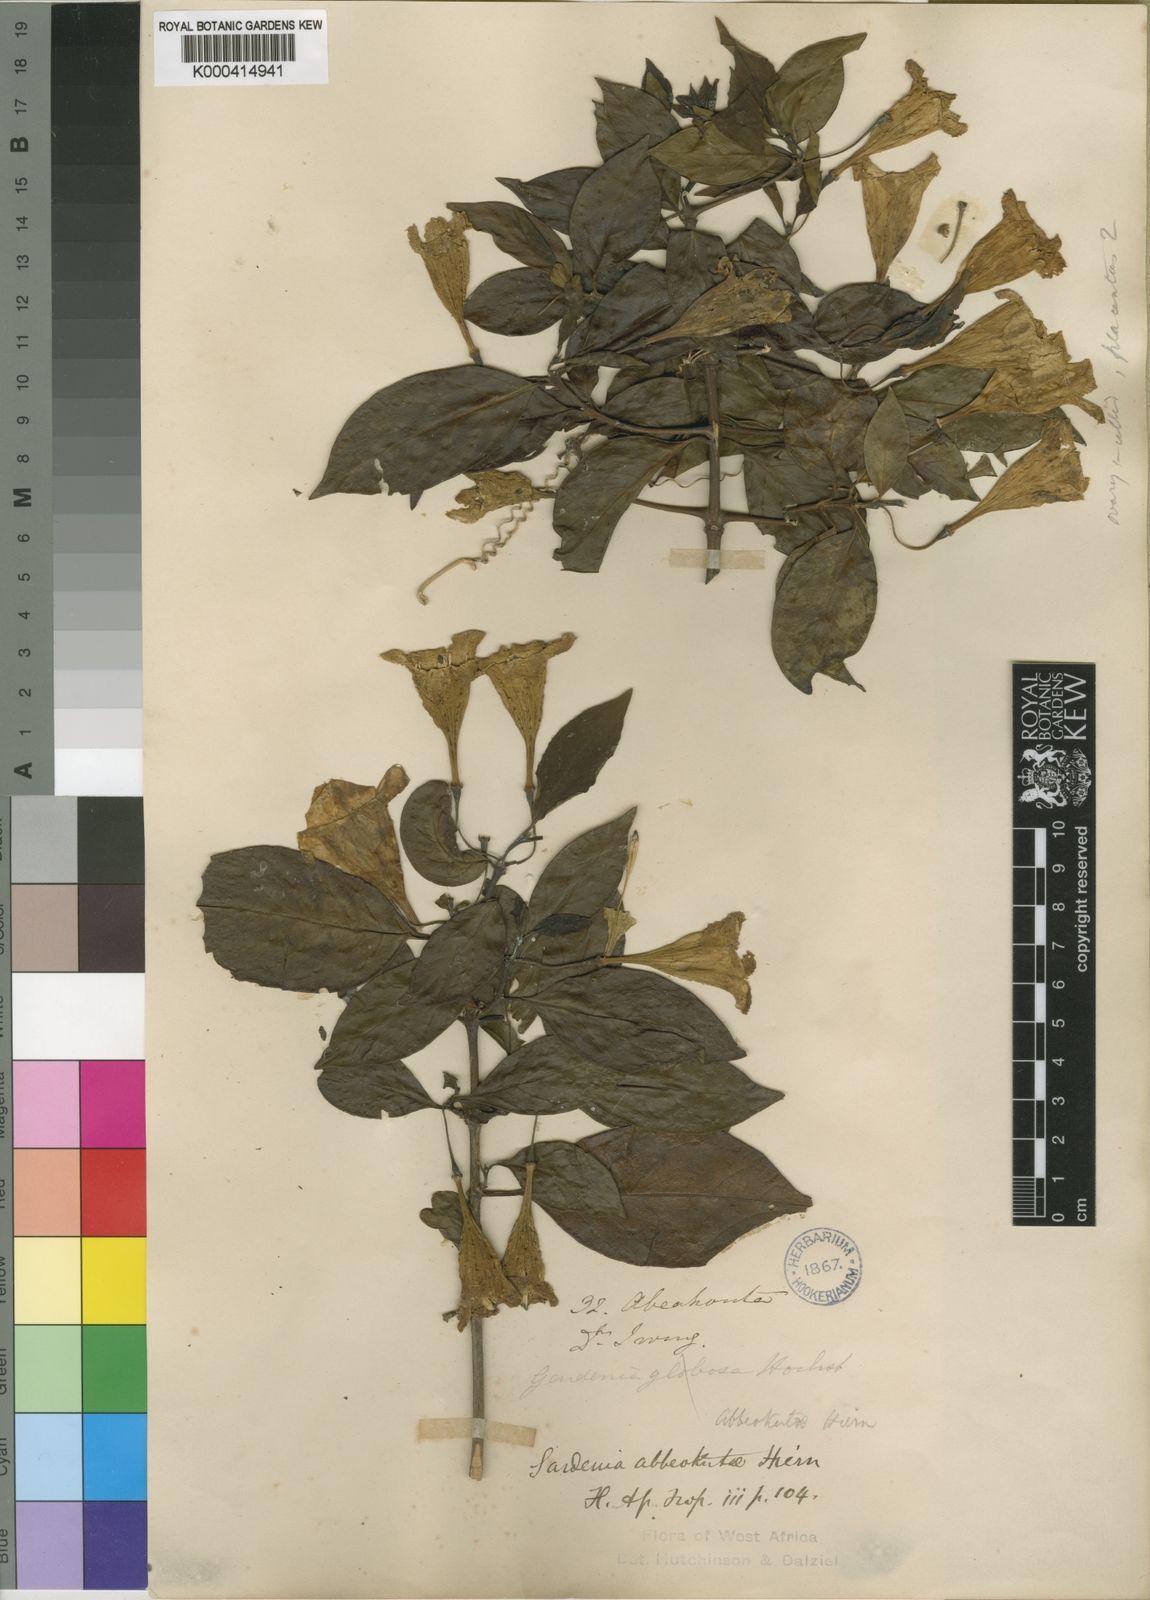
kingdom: Plantae
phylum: Tracheophyta
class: Magnoliopsida
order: Gentianales
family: Rubiaceae
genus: Didymosalpinx
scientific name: Didymosalpinx abbeokutae
